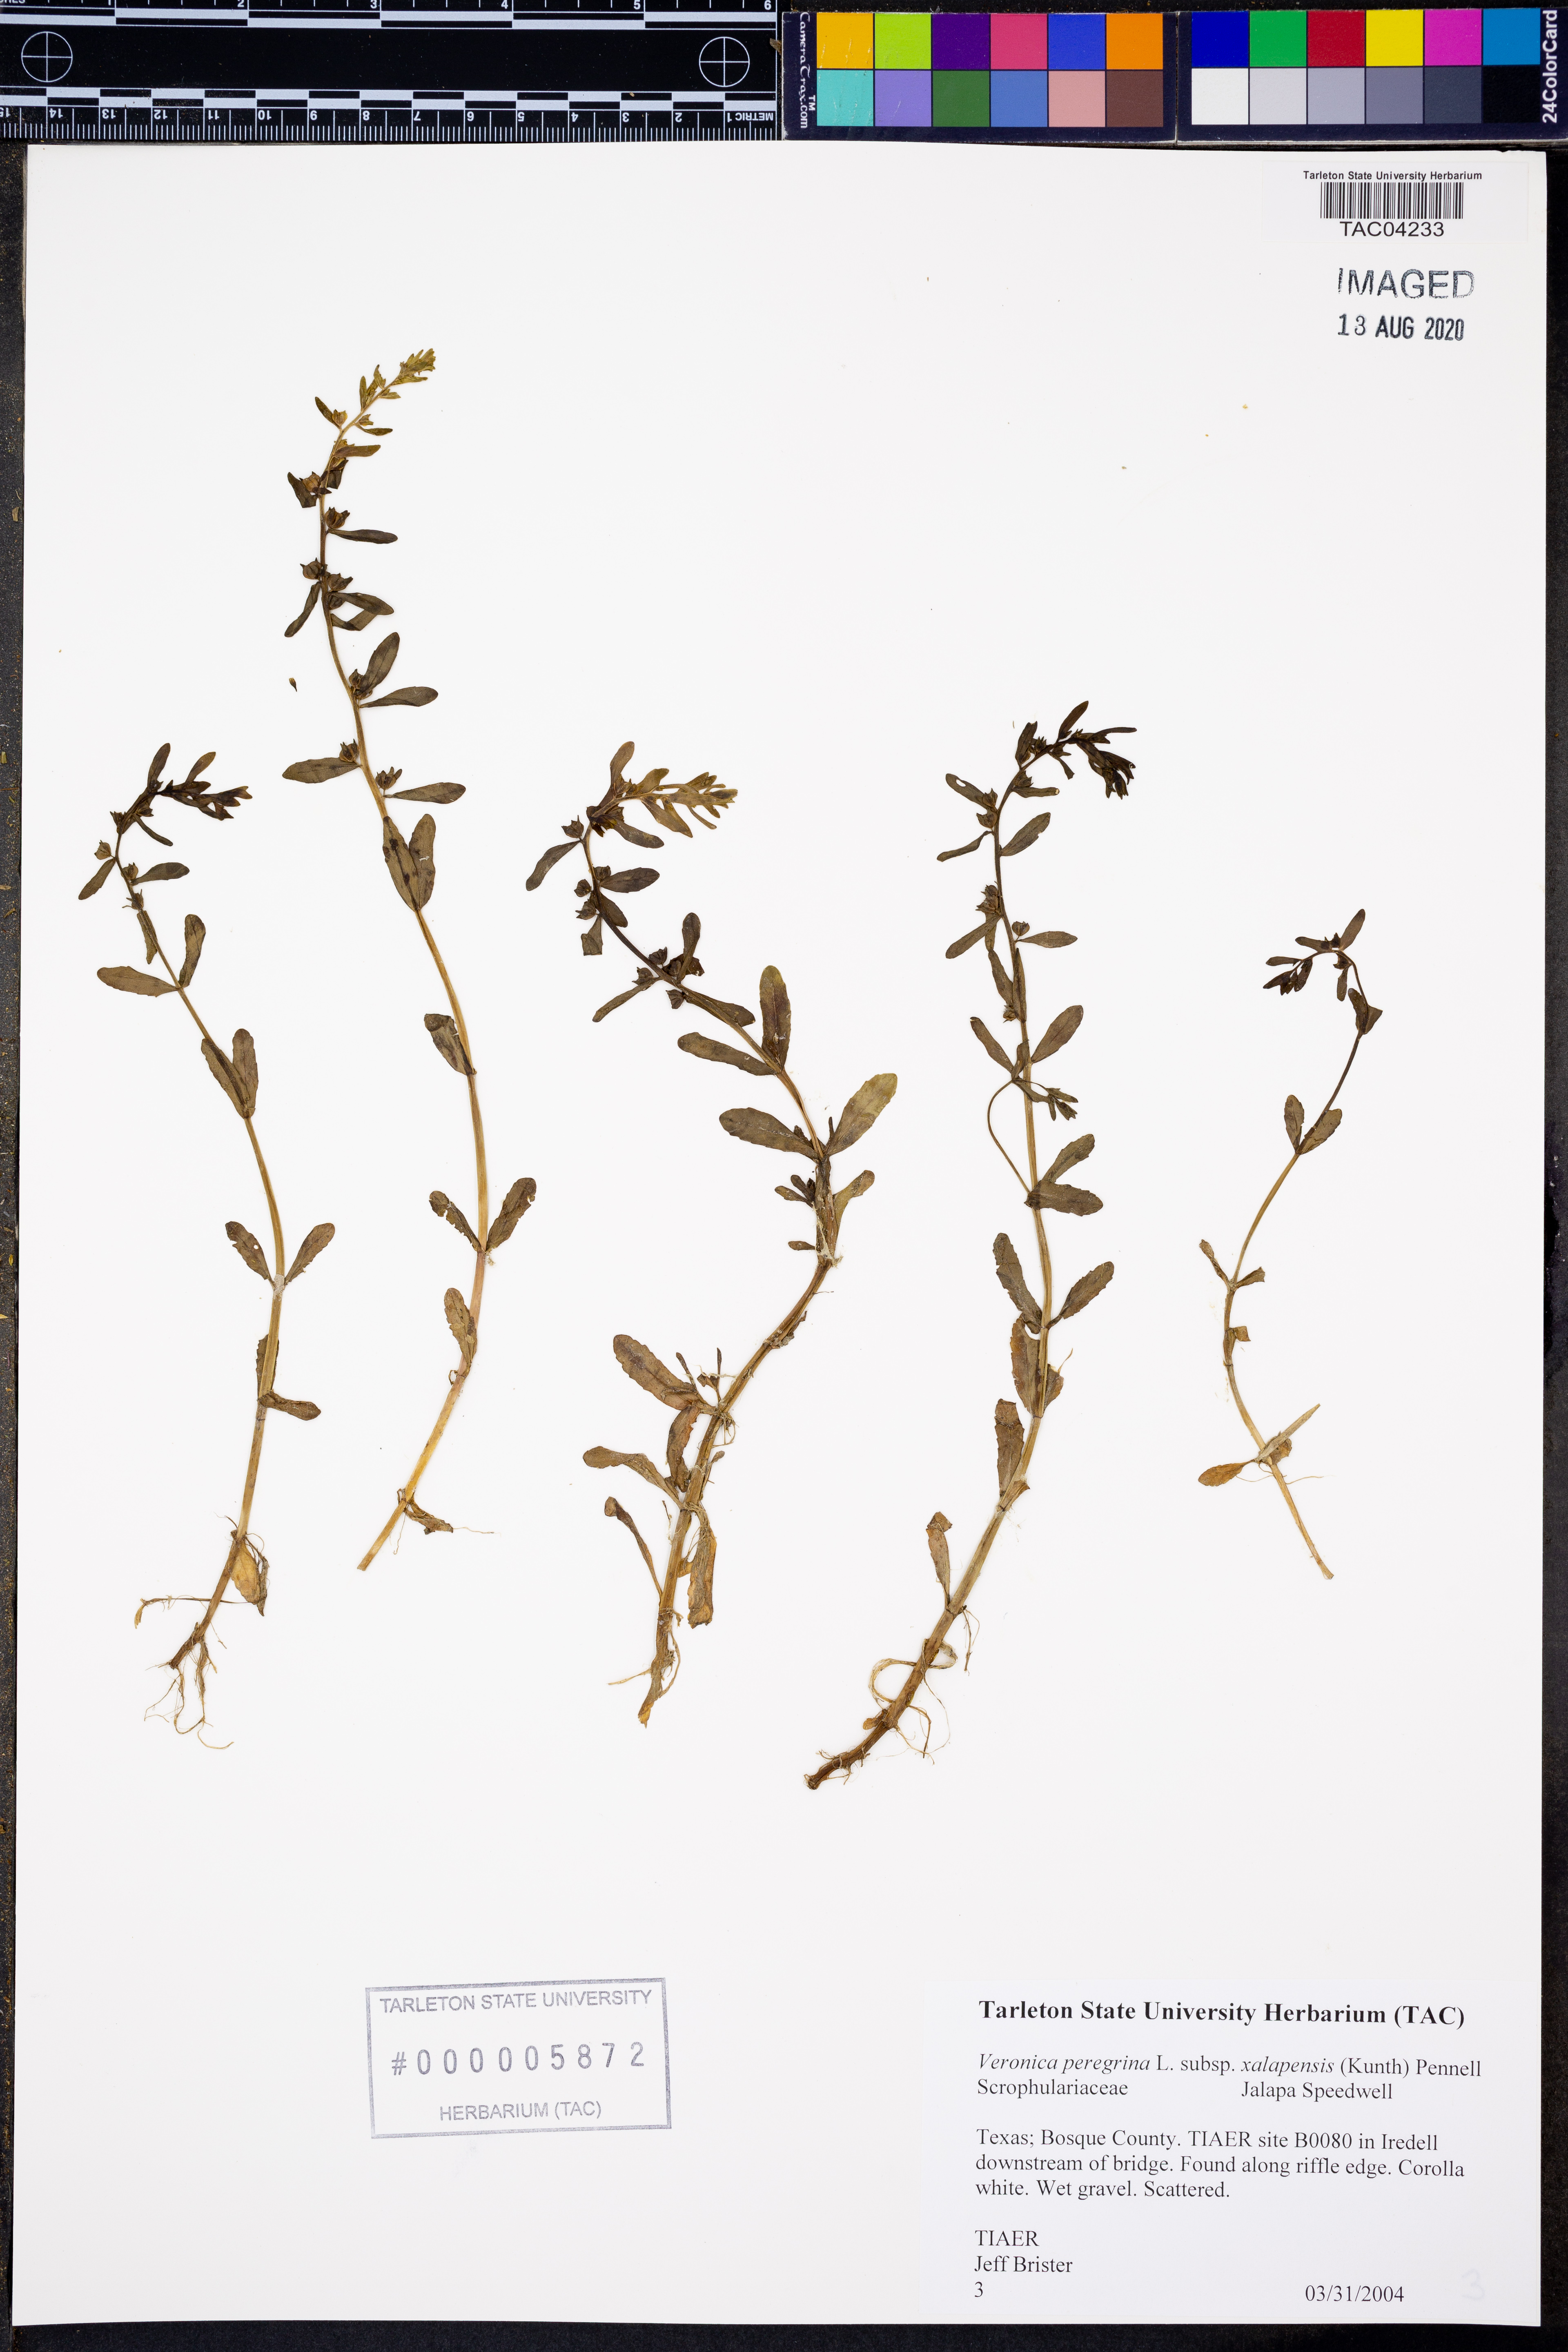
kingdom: Plantae
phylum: Tracheophyta
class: Magnoliopsida
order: Lamiales
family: Plantaginaceae
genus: Veronica
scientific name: Veronica americana
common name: American brooklime
